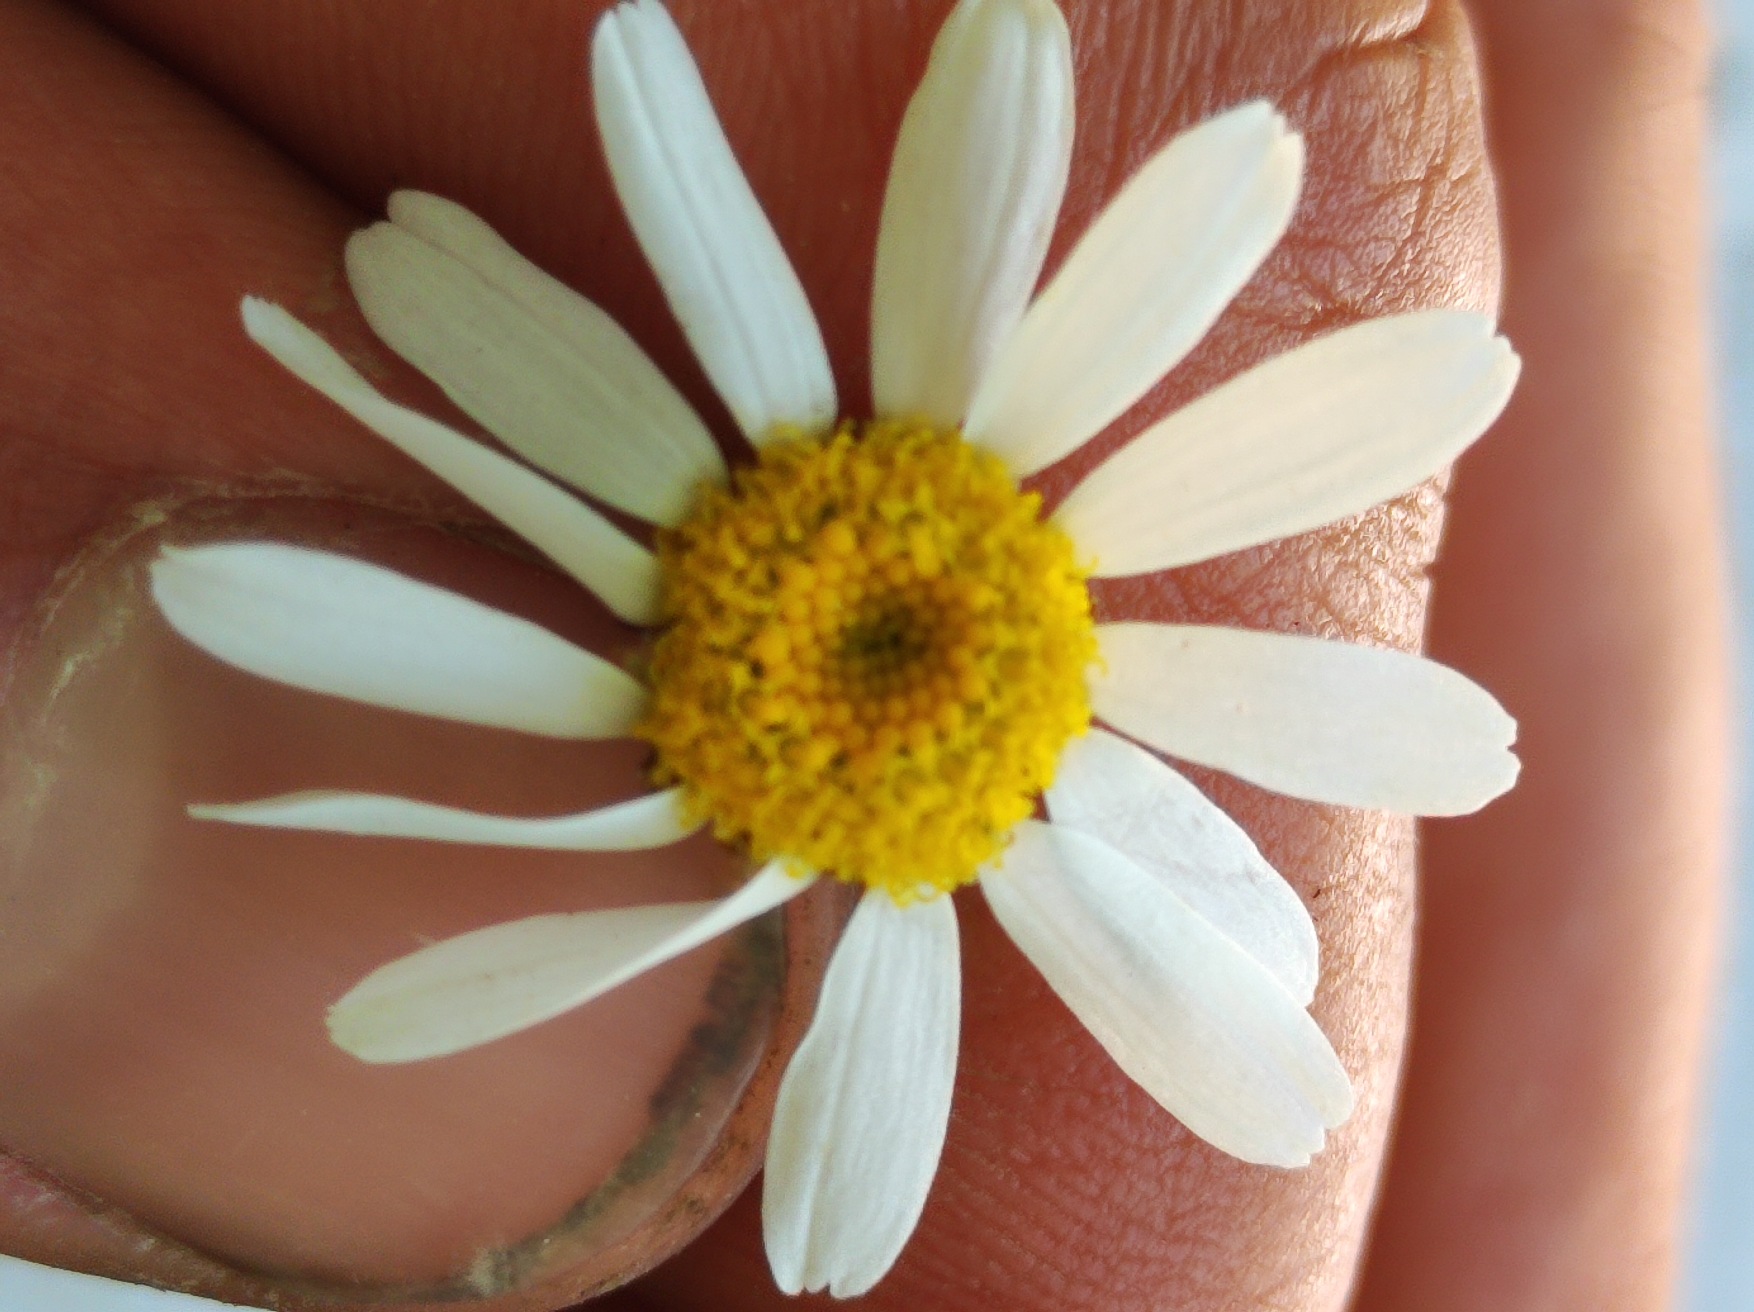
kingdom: Plantae
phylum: Tracheophyta
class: Magnoliopsida
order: Asterales
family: Asteraceae
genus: Tripleurospermum
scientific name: Tripleurospermum inodorum
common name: Lugtløs kamille
